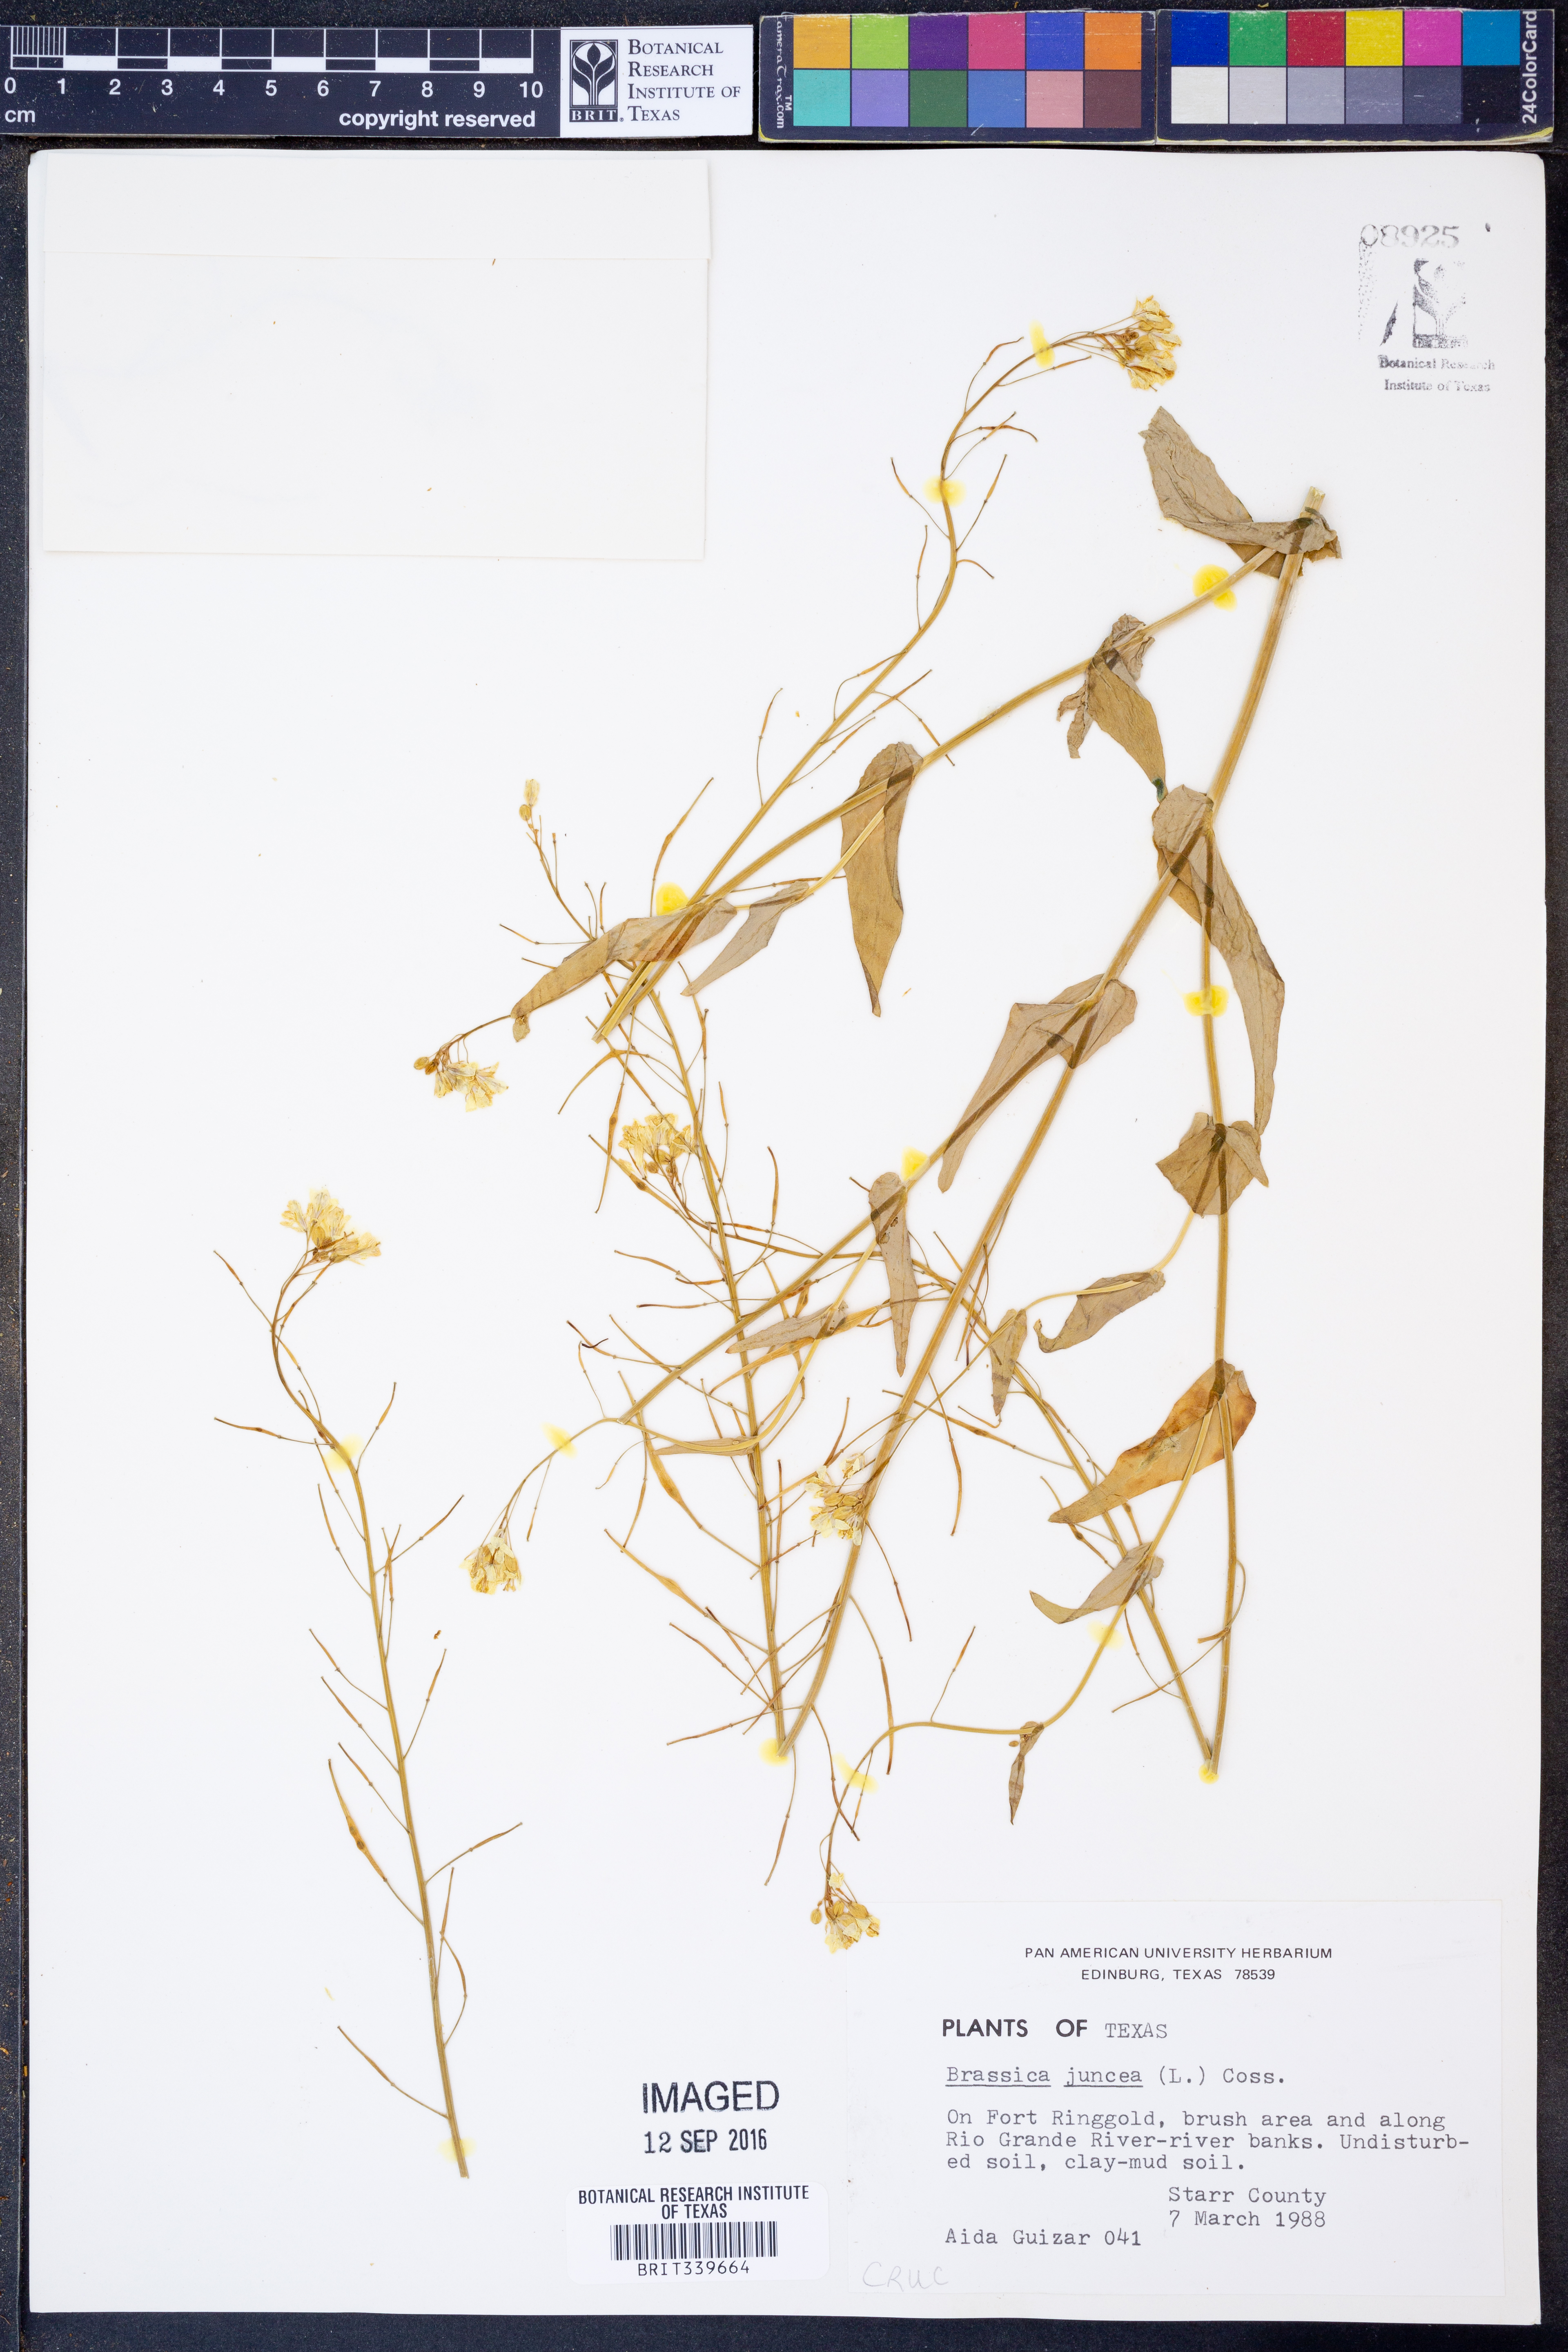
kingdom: Plantae
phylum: Tracheophyta
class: Magnoliopsida
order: Brassicales
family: Brassicaceae
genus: Brassica
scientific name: Brassica juncea
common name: Brown mustard
